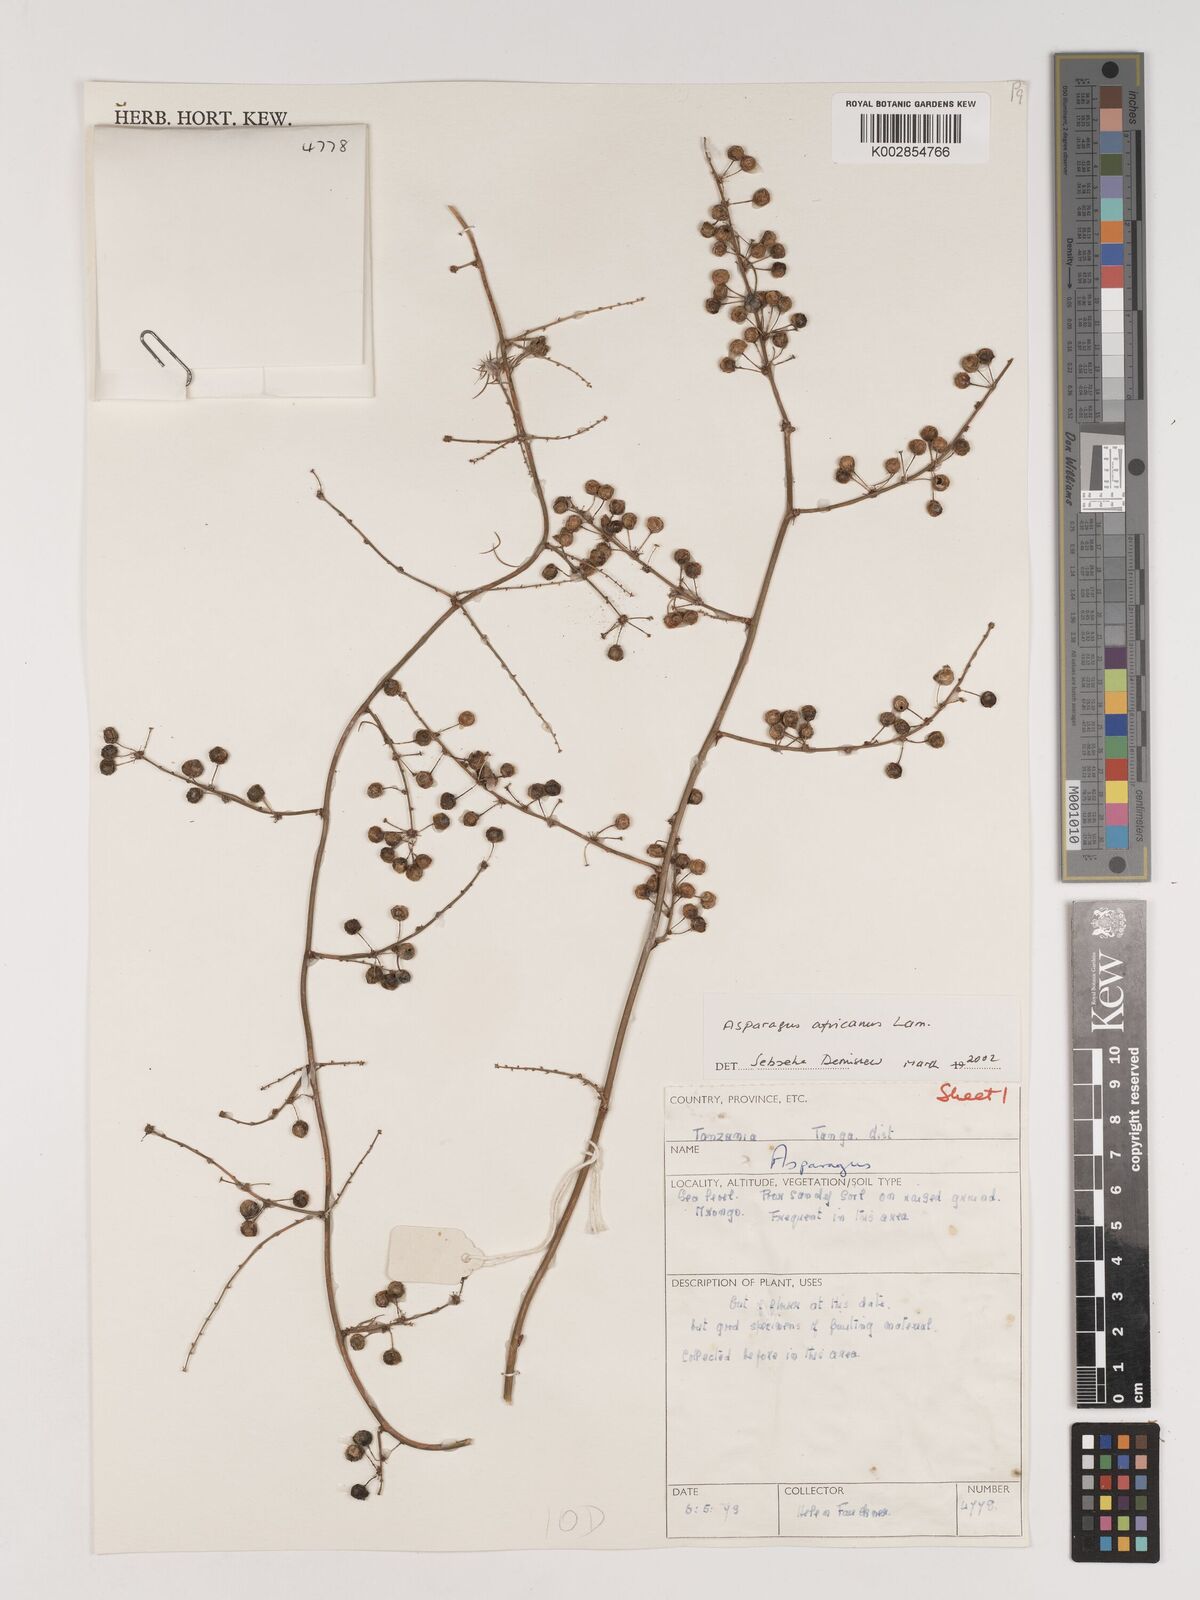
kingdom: Plantae
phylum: Tracheophyta
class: Liliopsida
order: Asparagales
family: Asparagaceae
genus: Asparagus
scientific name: Asparagus africanus
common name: Asparagus-fern
